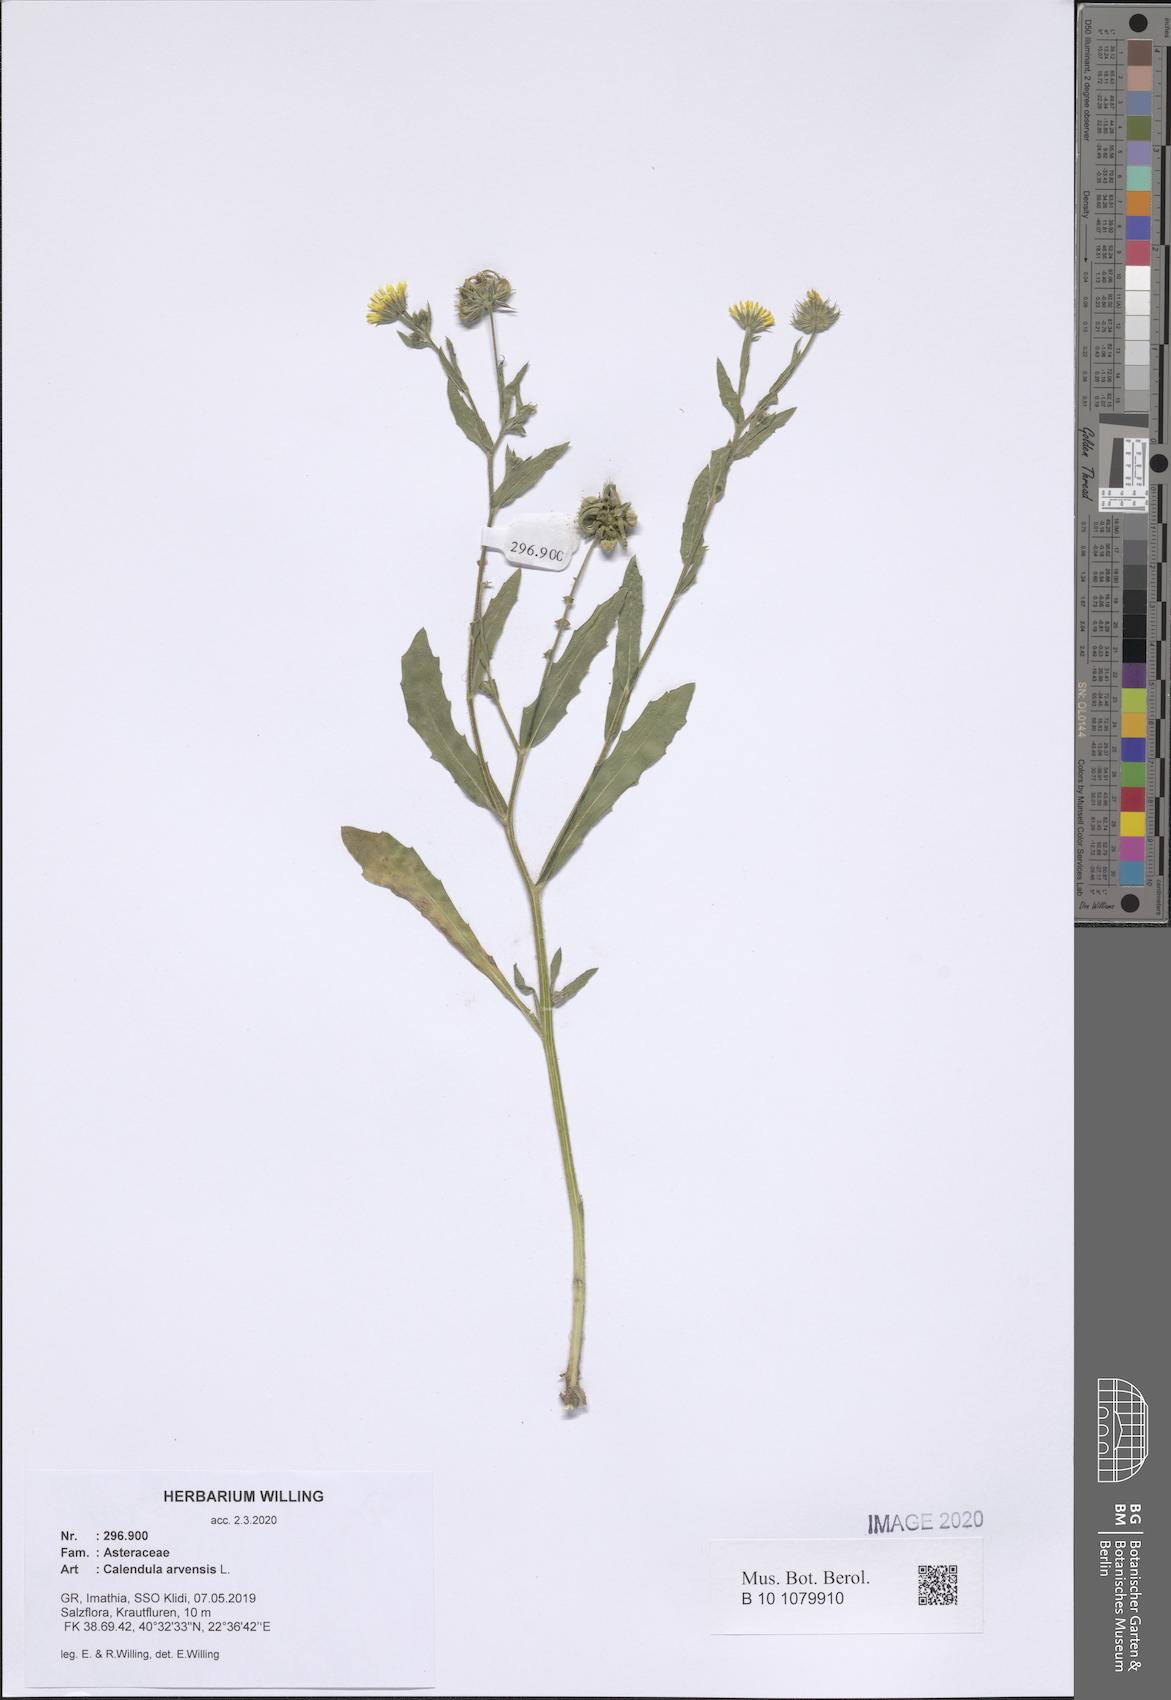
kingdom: Plantae
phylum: Tracheophyta
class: Magnoliopsida
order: Asterales
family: Asteraceae
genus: Calendula
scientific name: Calendula arvensis
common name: Field marigold
